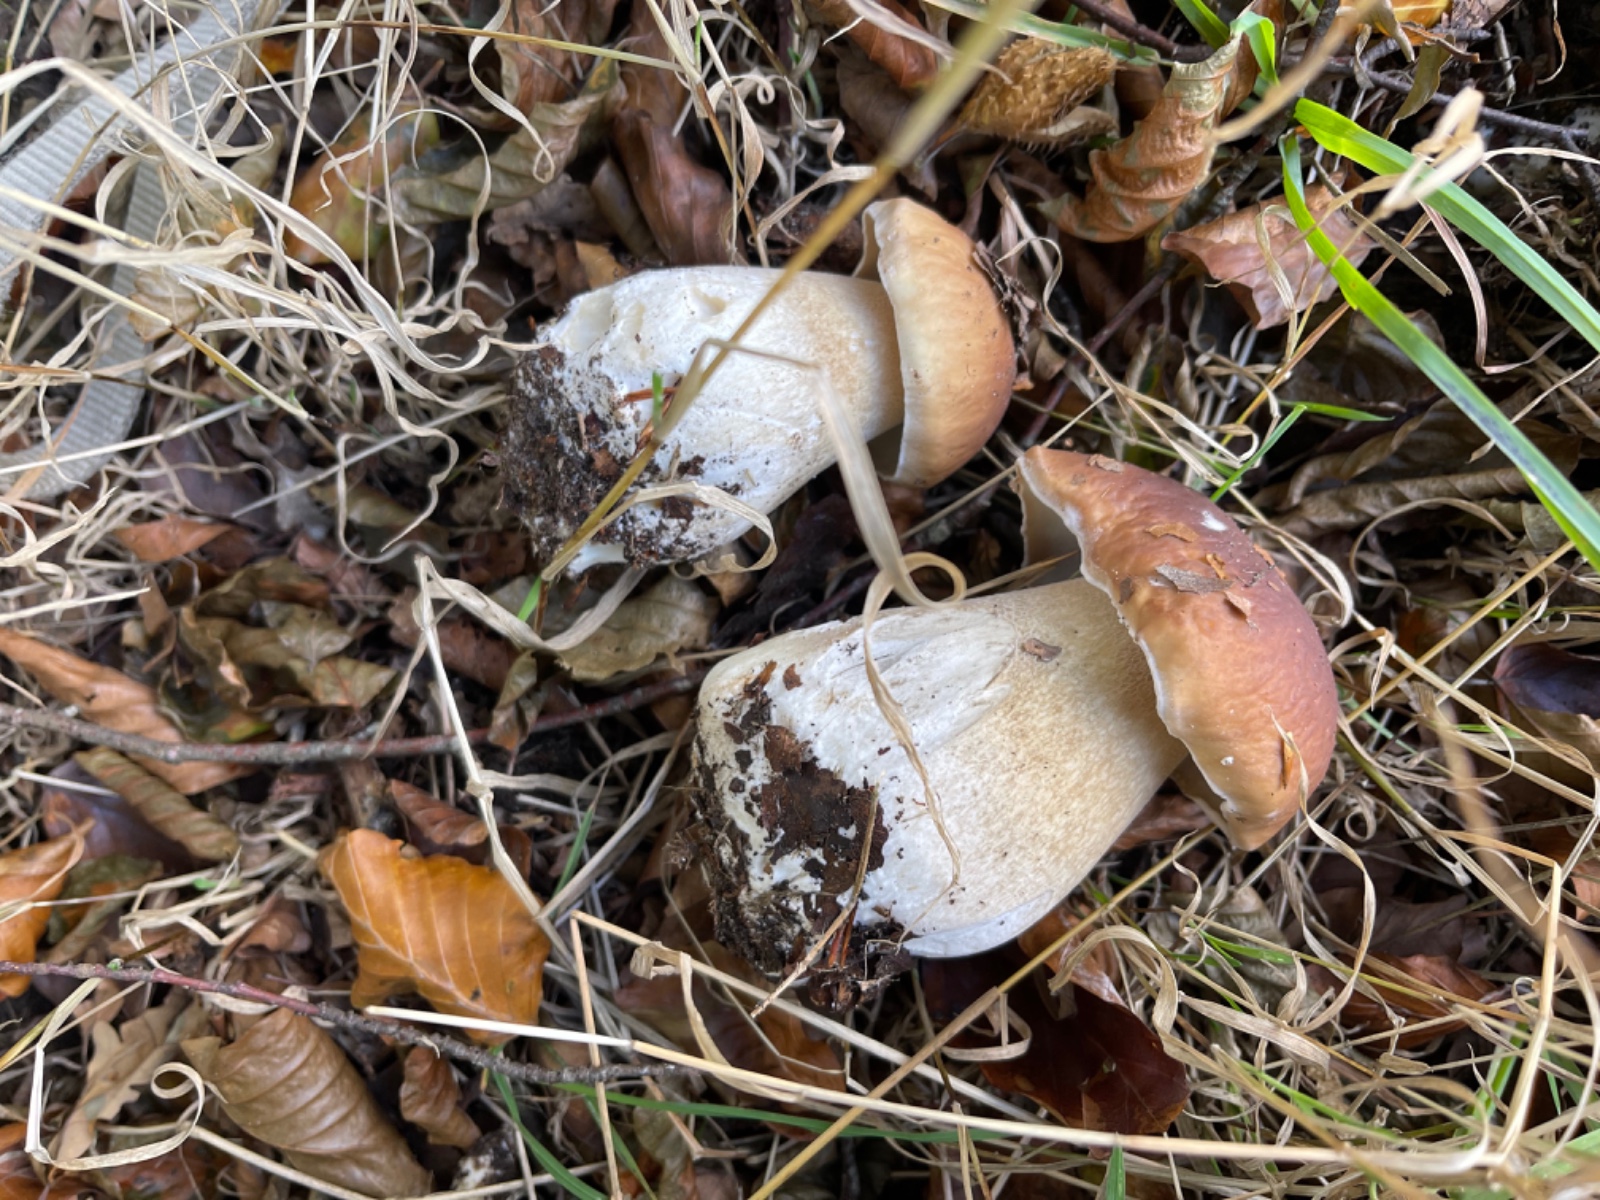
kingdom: Fungi
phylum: Basidiomycota
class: Agaricomycetes
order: Boletales
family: Boletaceae
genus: Boletus
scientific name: Boletus edulis
